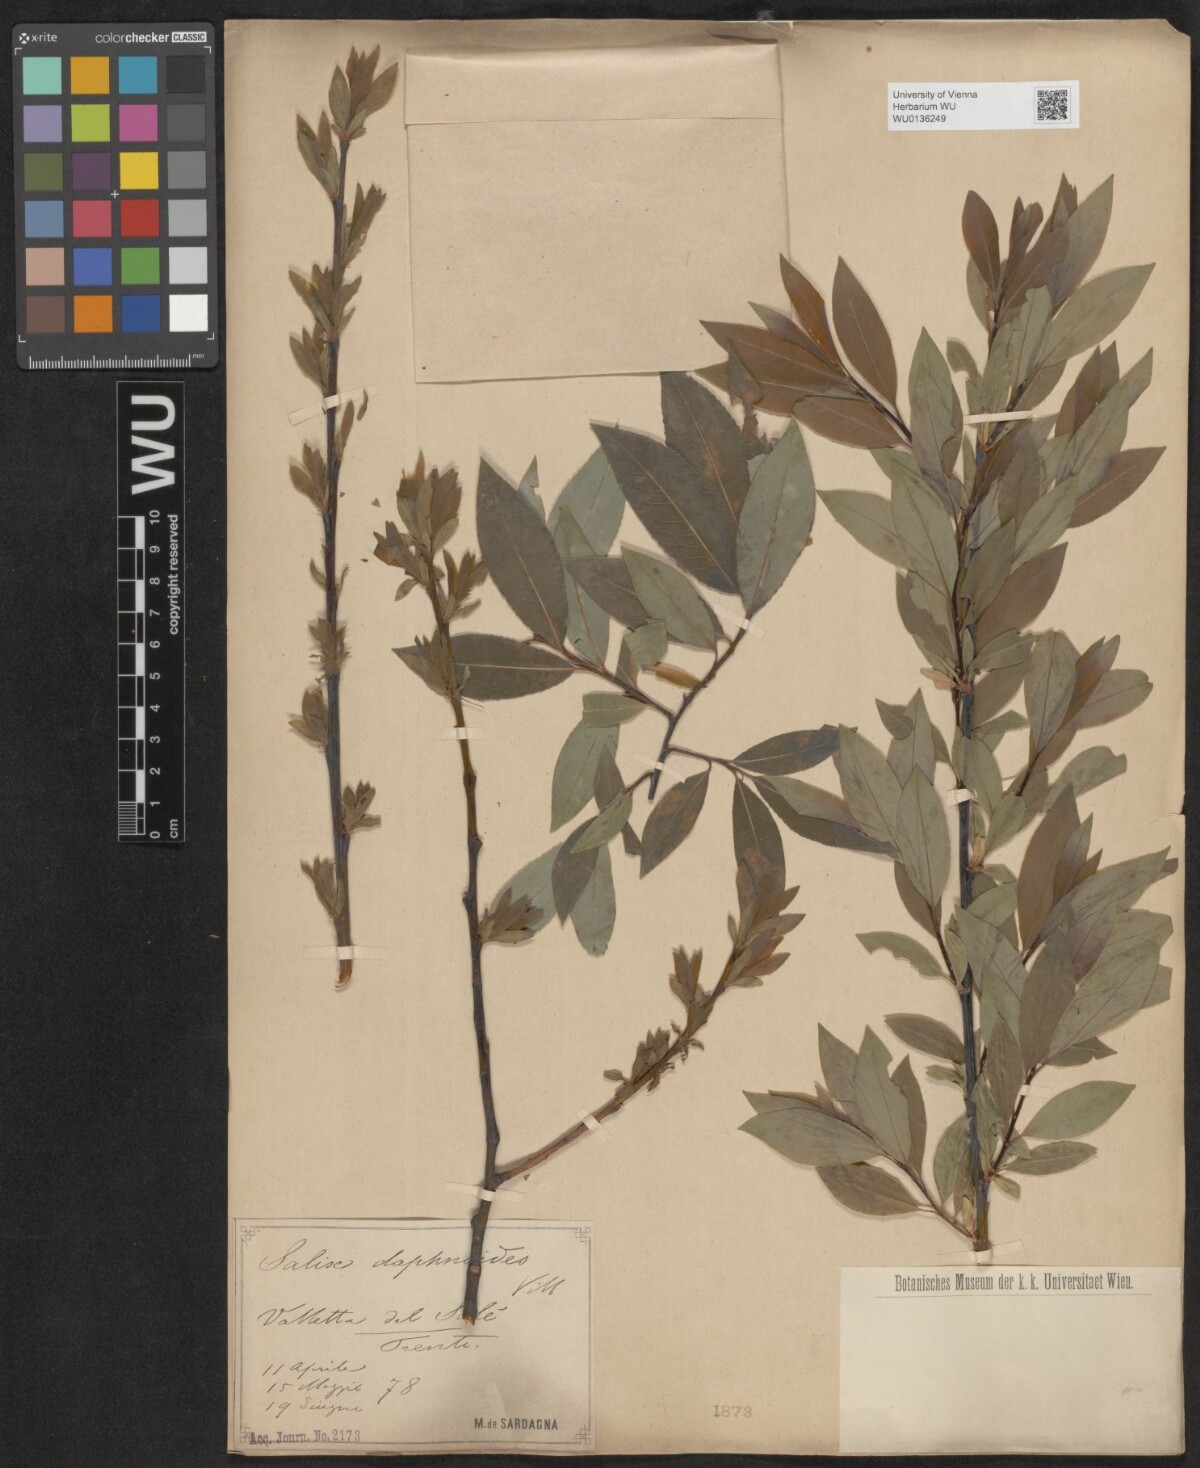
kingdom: Plantae
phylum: Tracheophyta
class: Magnoliopsida
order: Malpighiales
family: Salicaceae
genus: Salix
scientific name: Salix daphnoides
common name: European violet-willow
